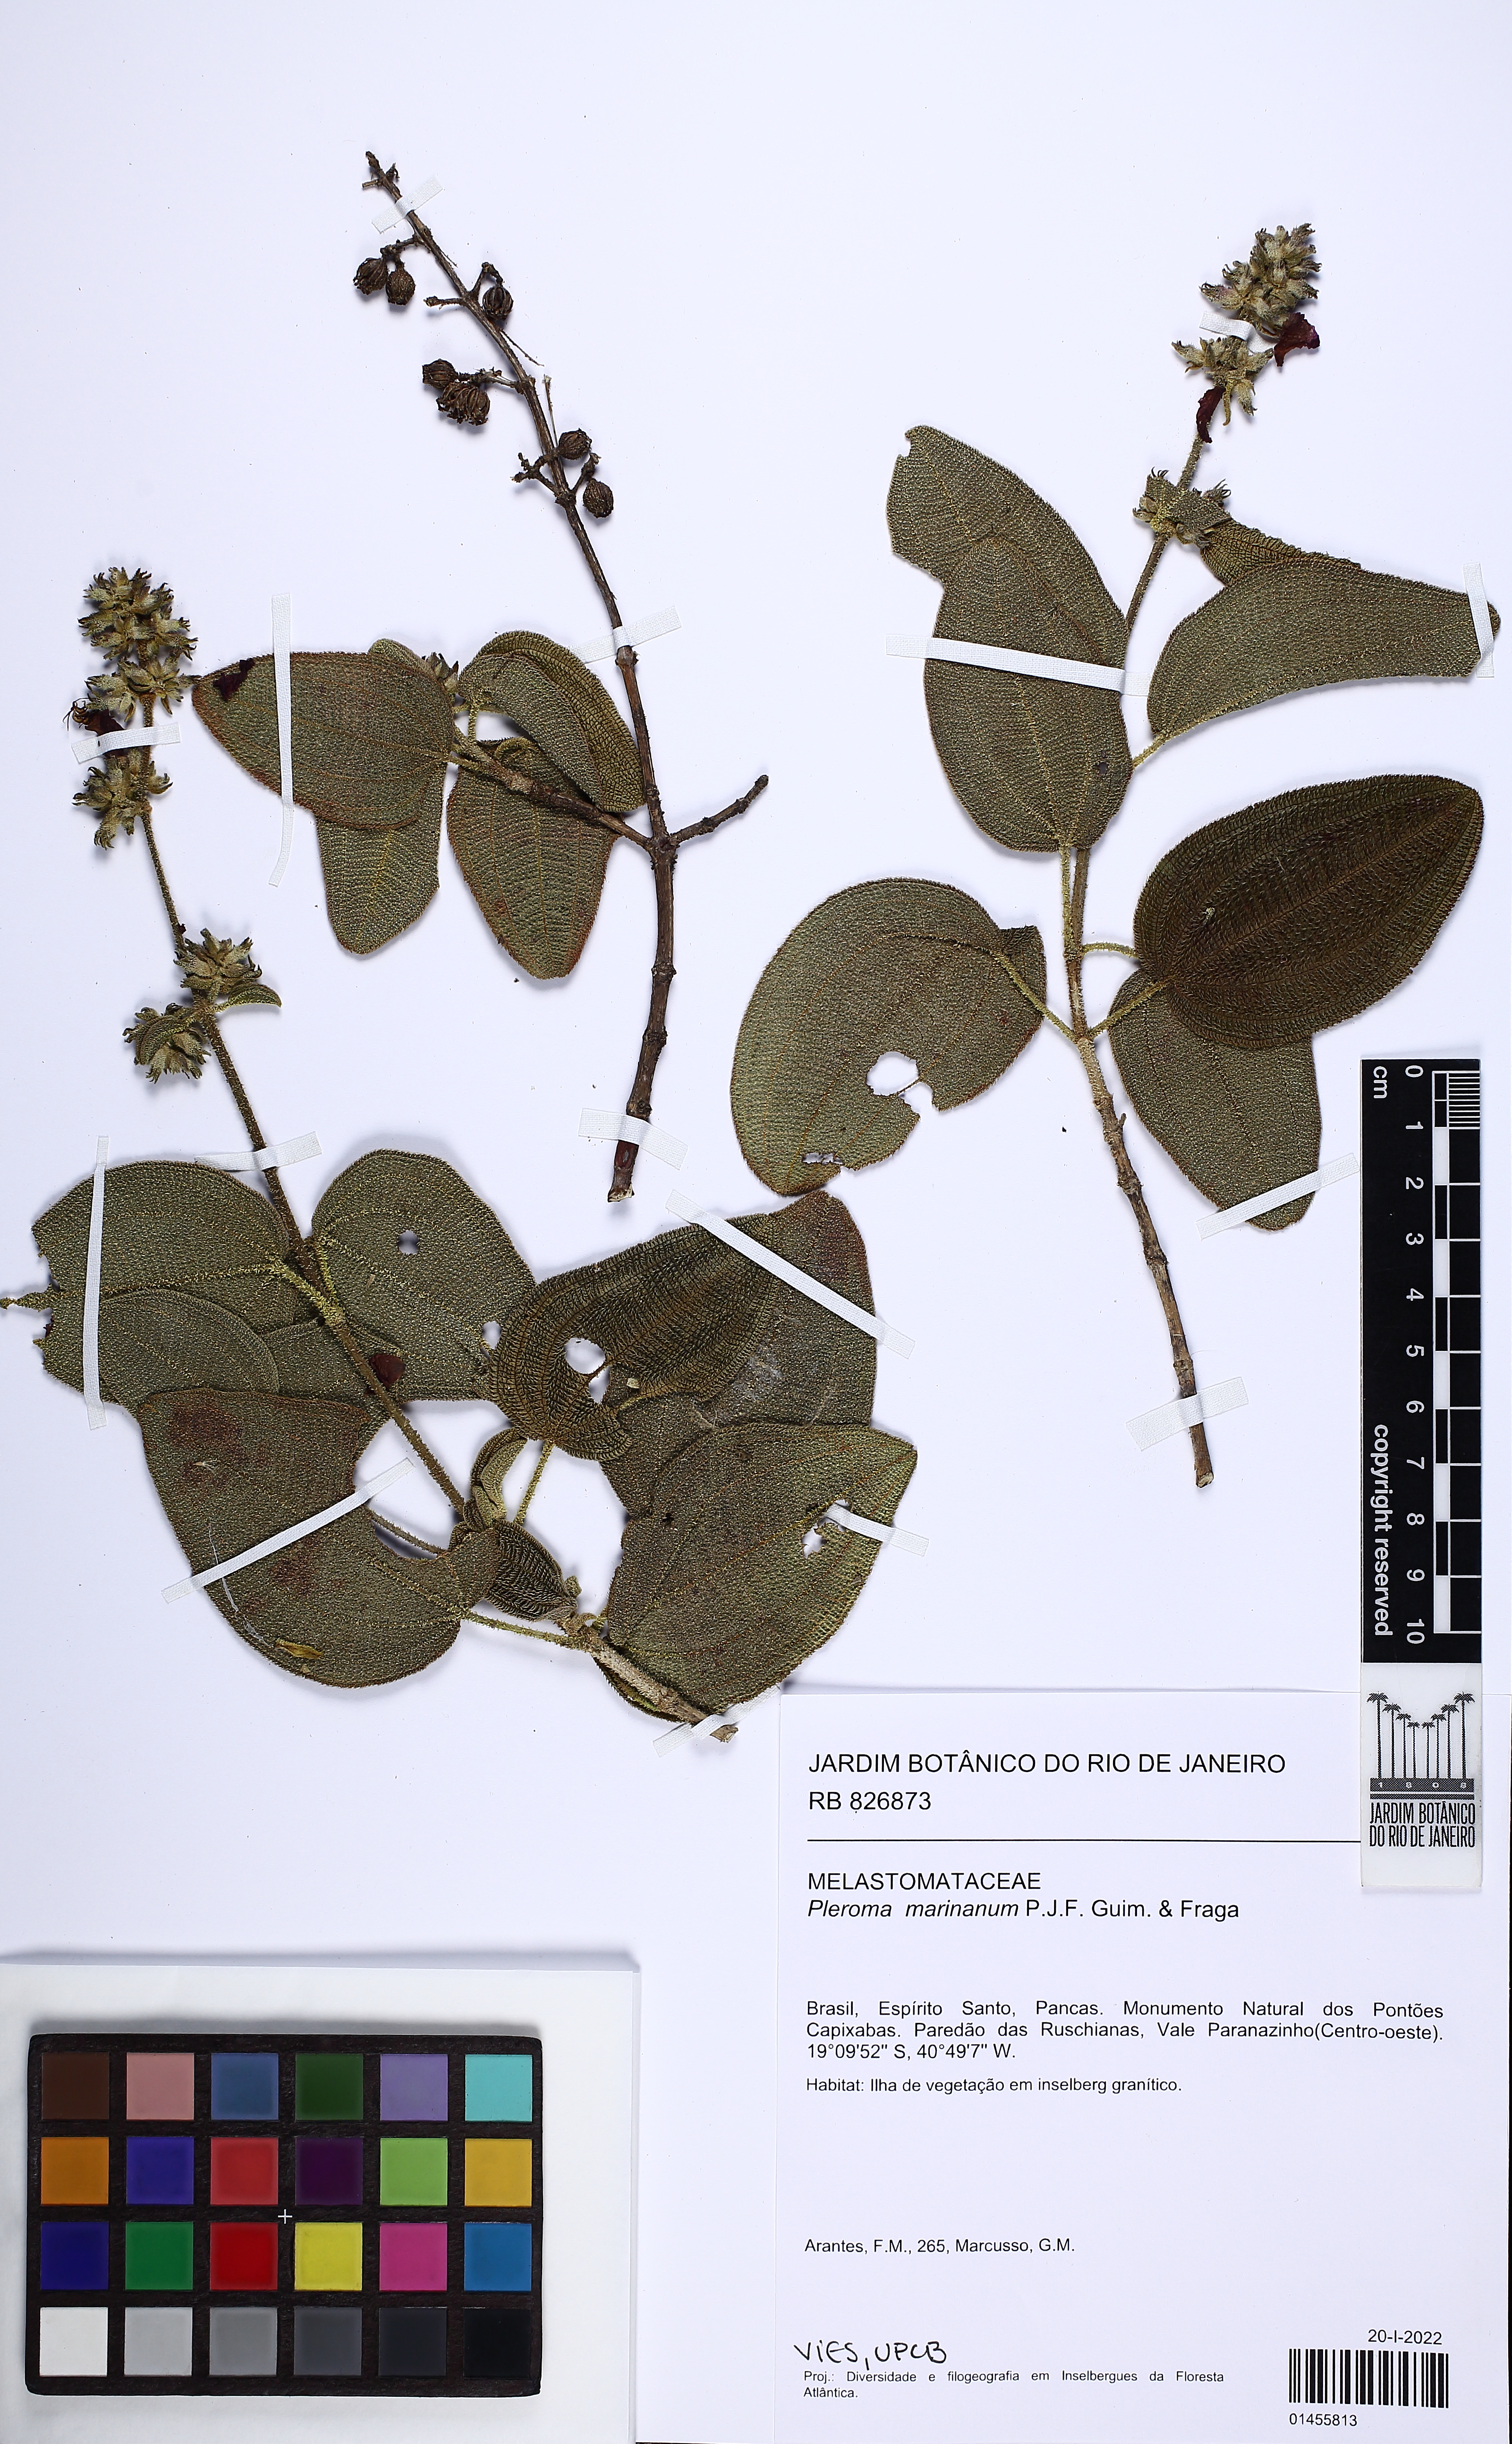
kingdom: Plantae
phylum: Tracheophyta
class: Magnoliopsida
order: Myrtales
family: Melastomataceae
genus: Pleroma
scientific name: Pleroma marinanum
